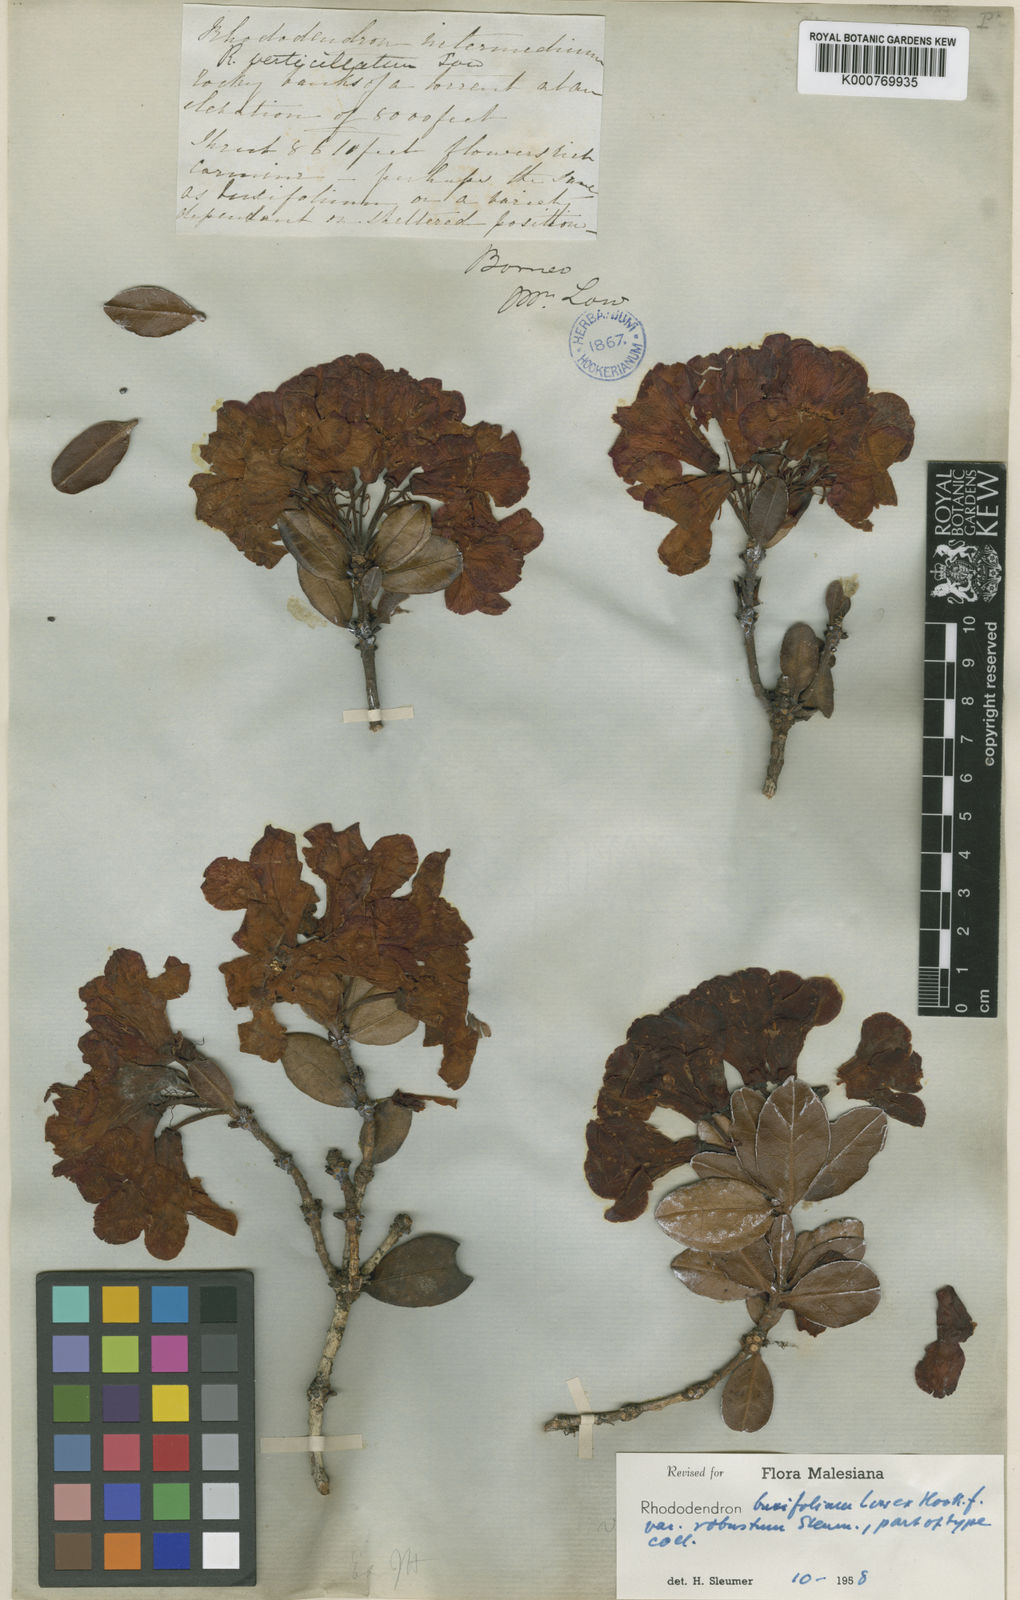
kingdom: Plantae
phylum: Tracheophyta
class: Magnoliopsida
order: Ericales
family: Ericaceae
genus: Rhododendron
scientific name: Rhododendron buxifolium
